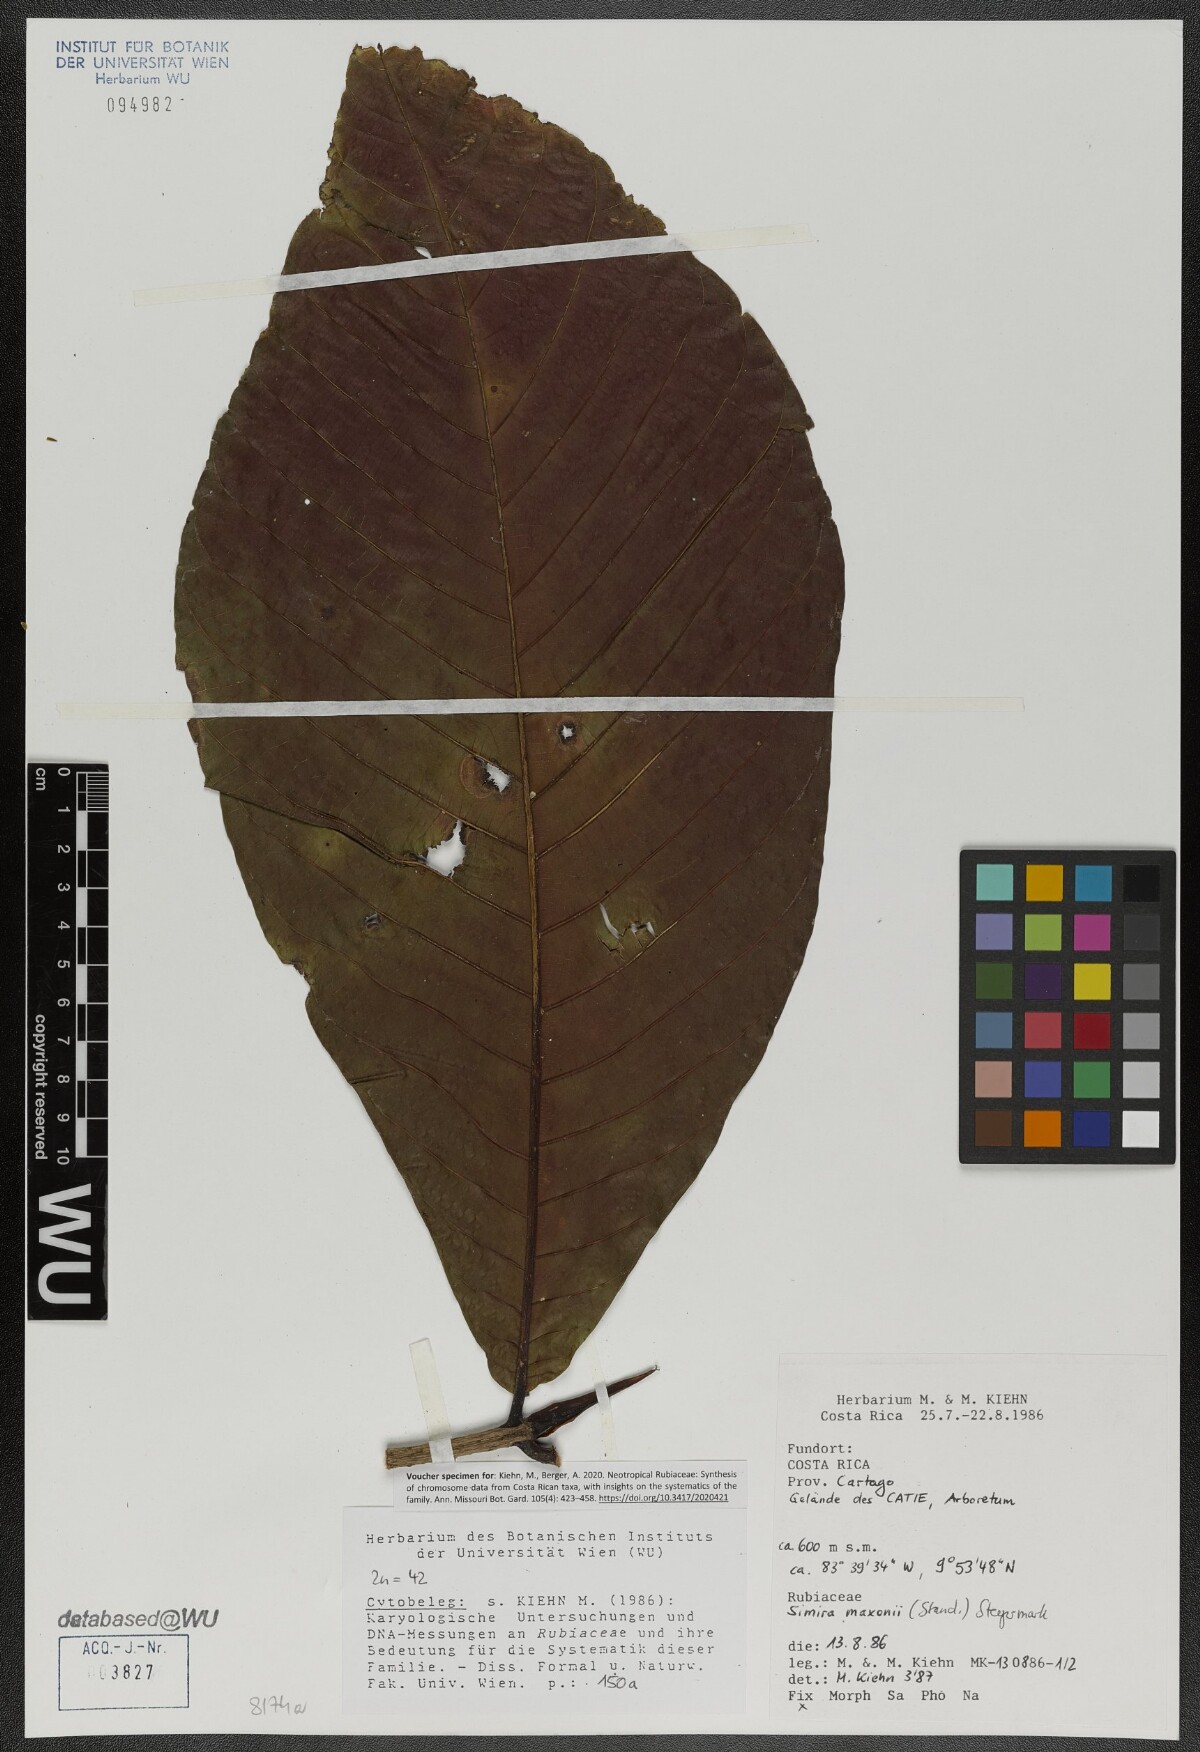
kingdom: Plantae
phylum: Tracheophyta
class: Magnoliopsida
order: Gentianales
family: Rubiaceae
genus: Simira
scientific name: Simira maxonii
